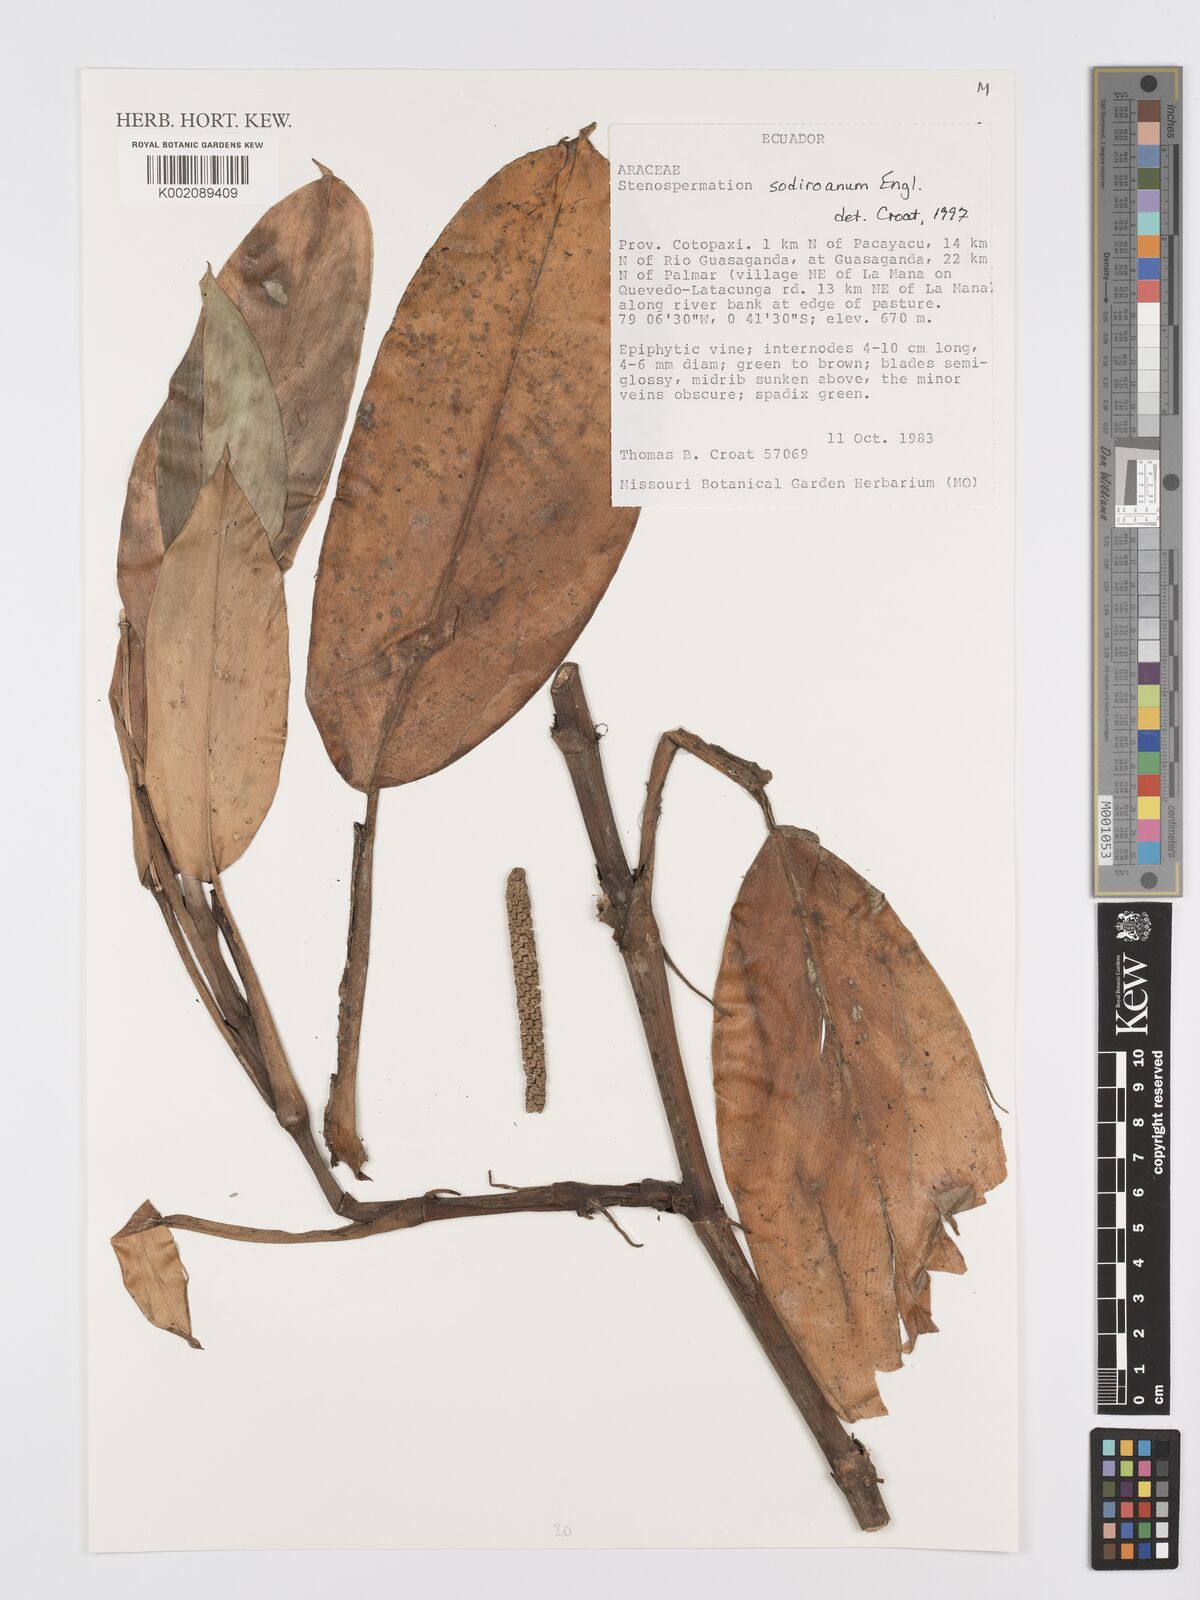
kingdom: Plantae
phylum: Tracheophyta
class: Liliopsida
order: Alismatales
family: Araceae
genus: Stenospermation
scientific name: Stenospermation longipetiolatum
